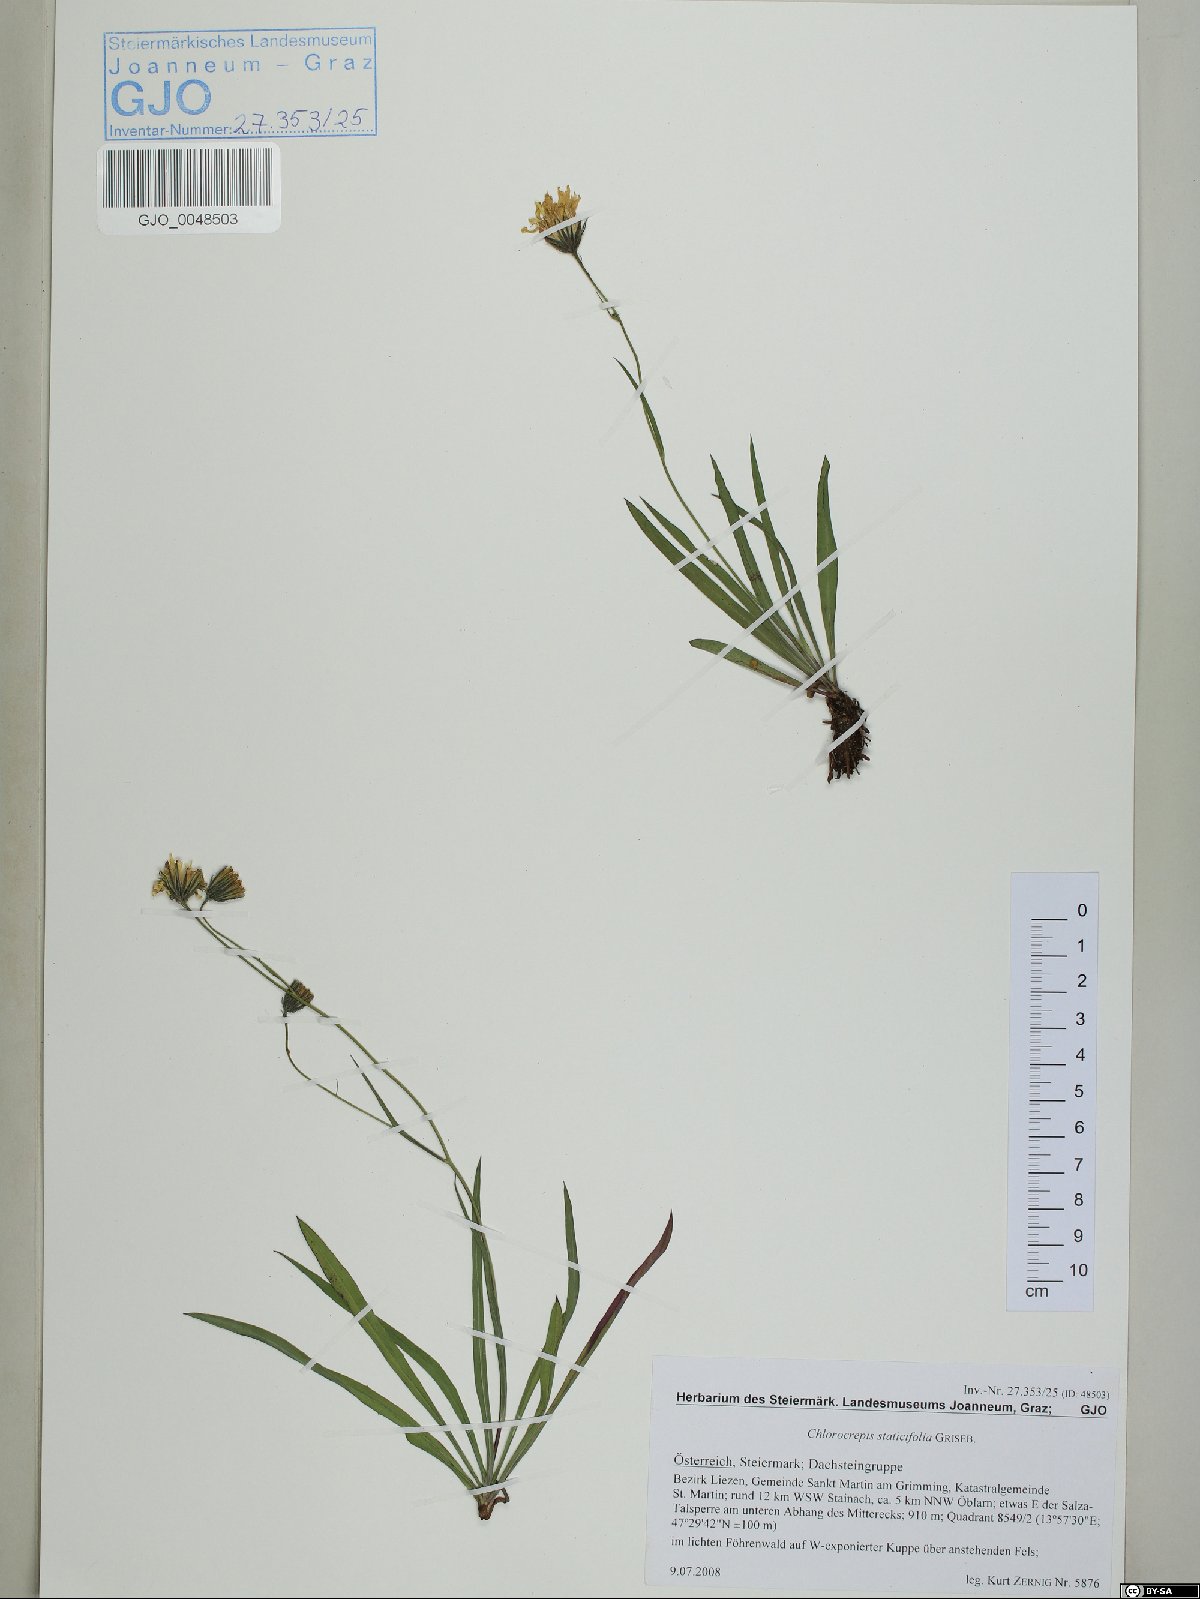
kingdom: Plantae
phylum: Tracheophyta
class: Magnoliopsida
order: Asterales
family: Asteraceae
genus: Tolpis
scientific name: Tolpis staticifolia
